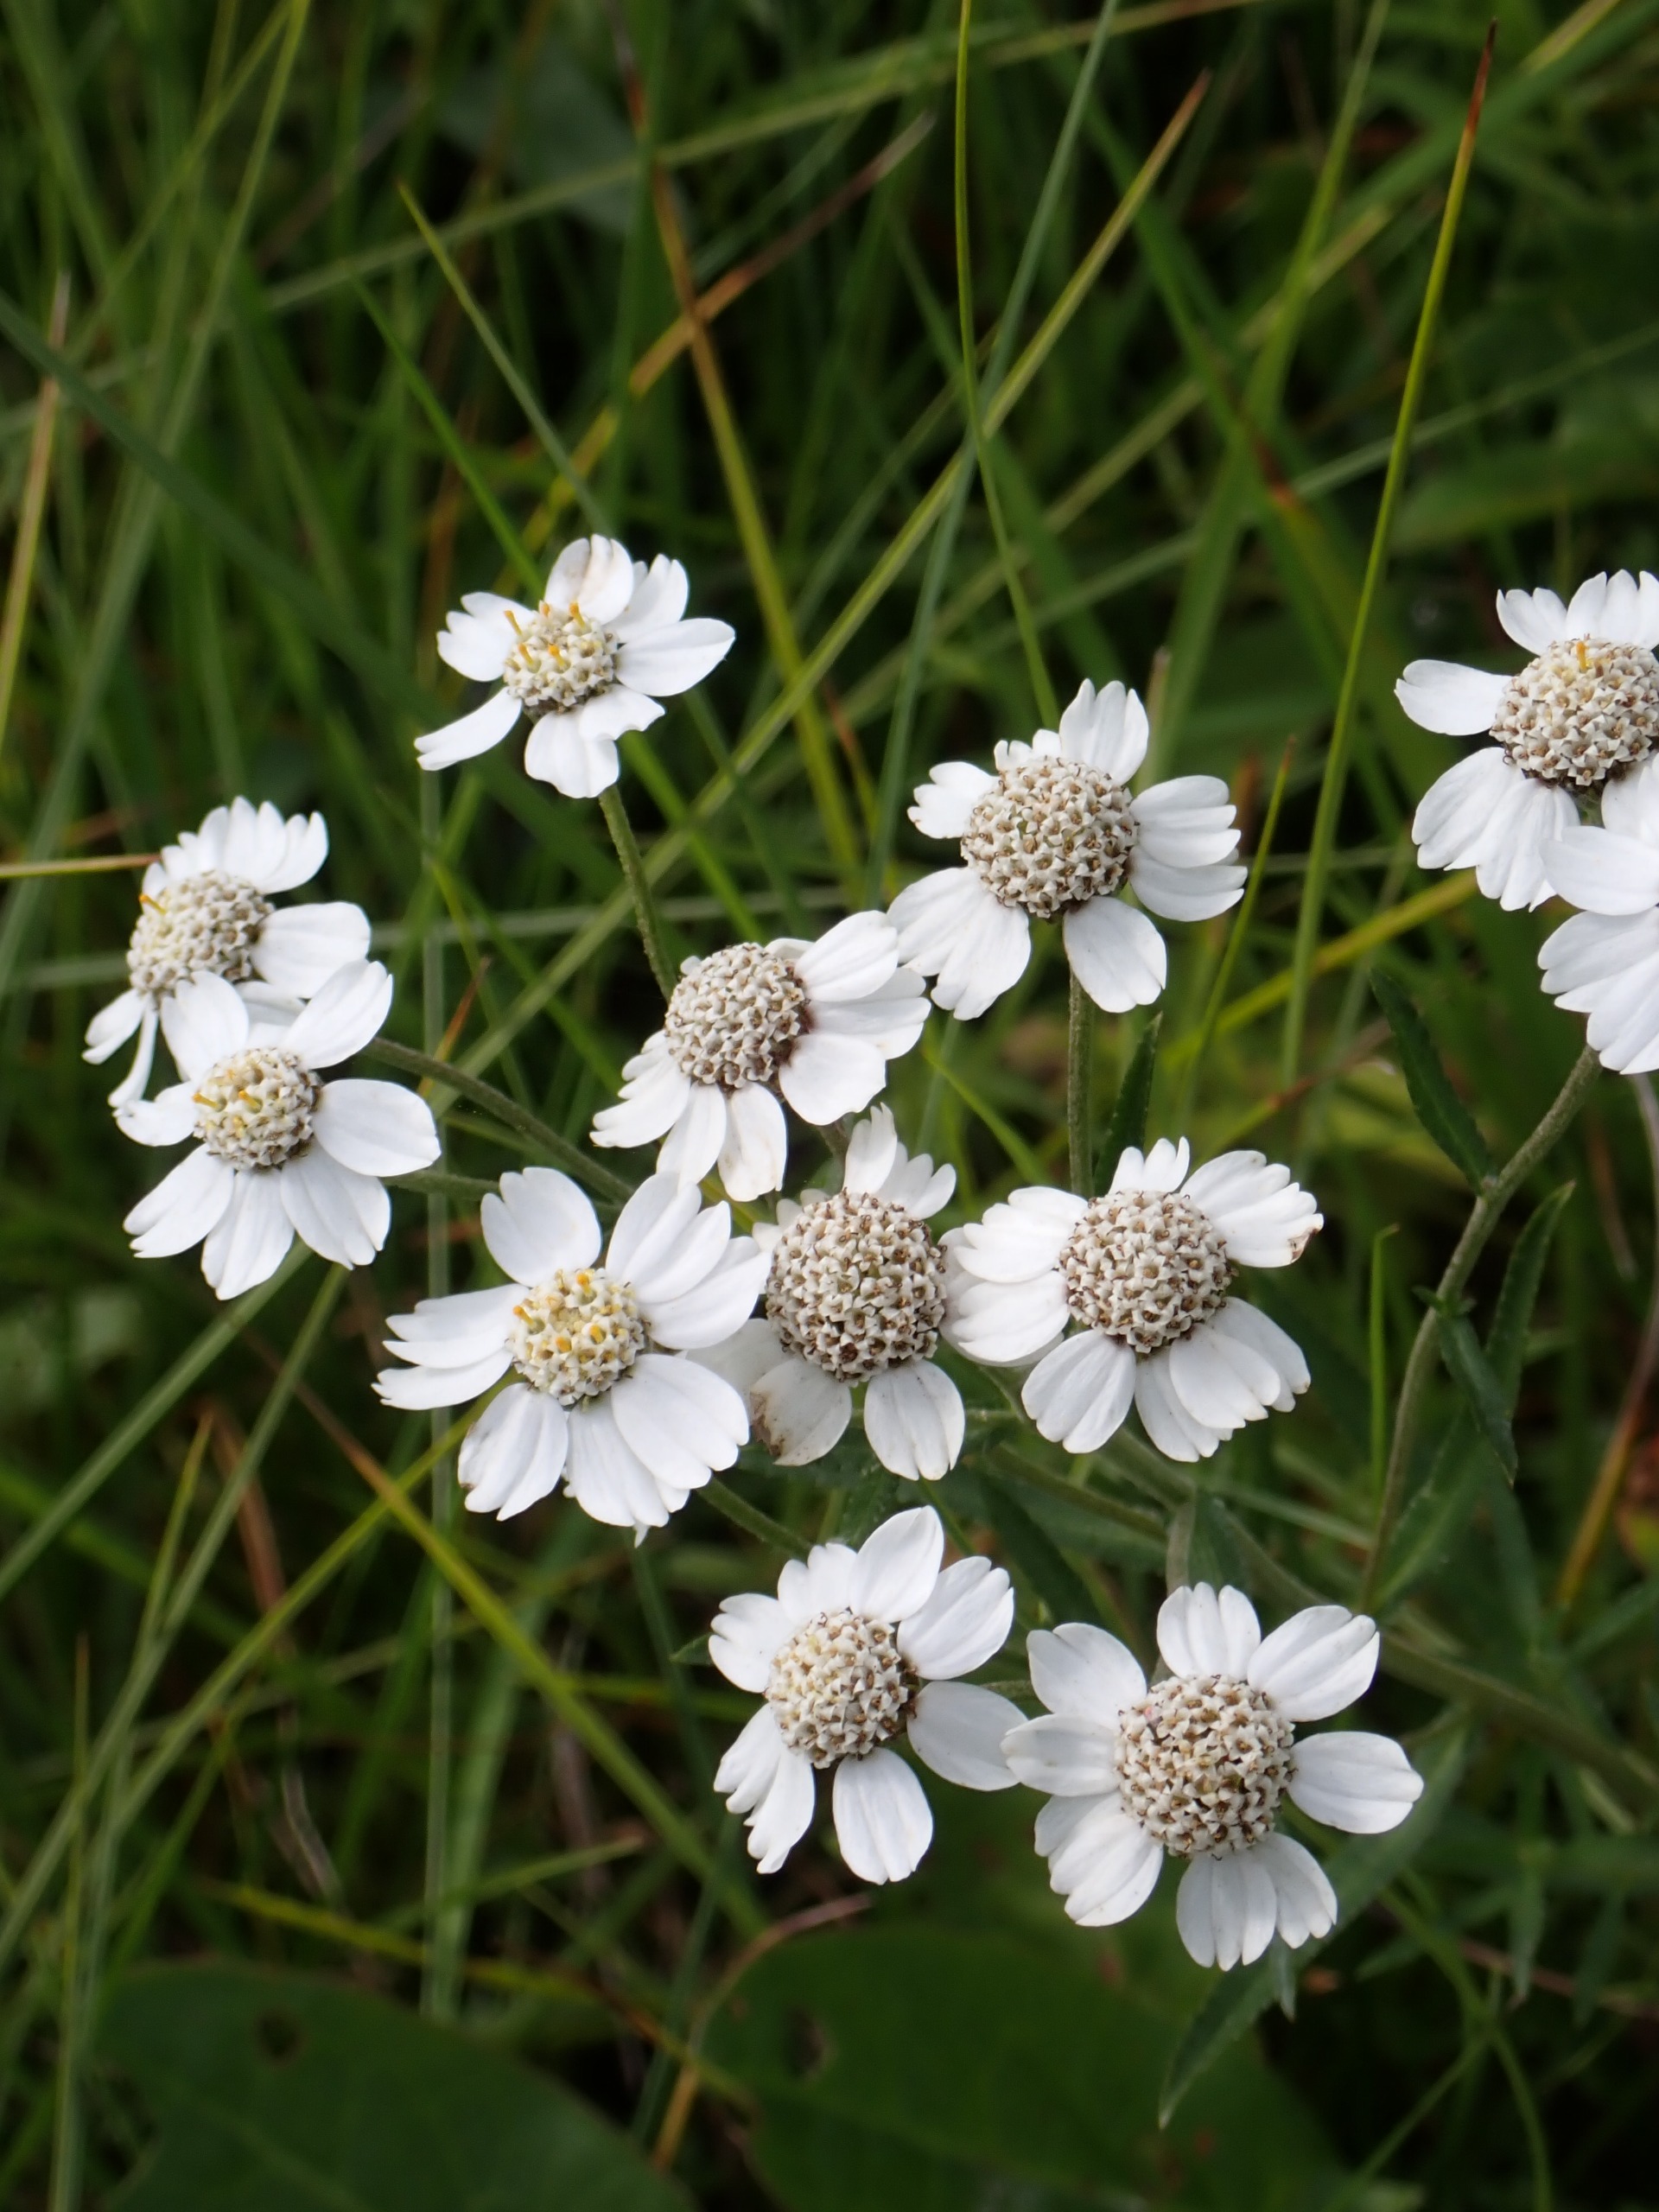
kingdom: Plantae
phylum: Tracheophyta
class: Magnoliopsida
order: Asterales
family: Asteraceae
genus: Achillea
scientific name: Achillea ptarmica
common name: Nyse-røllike
